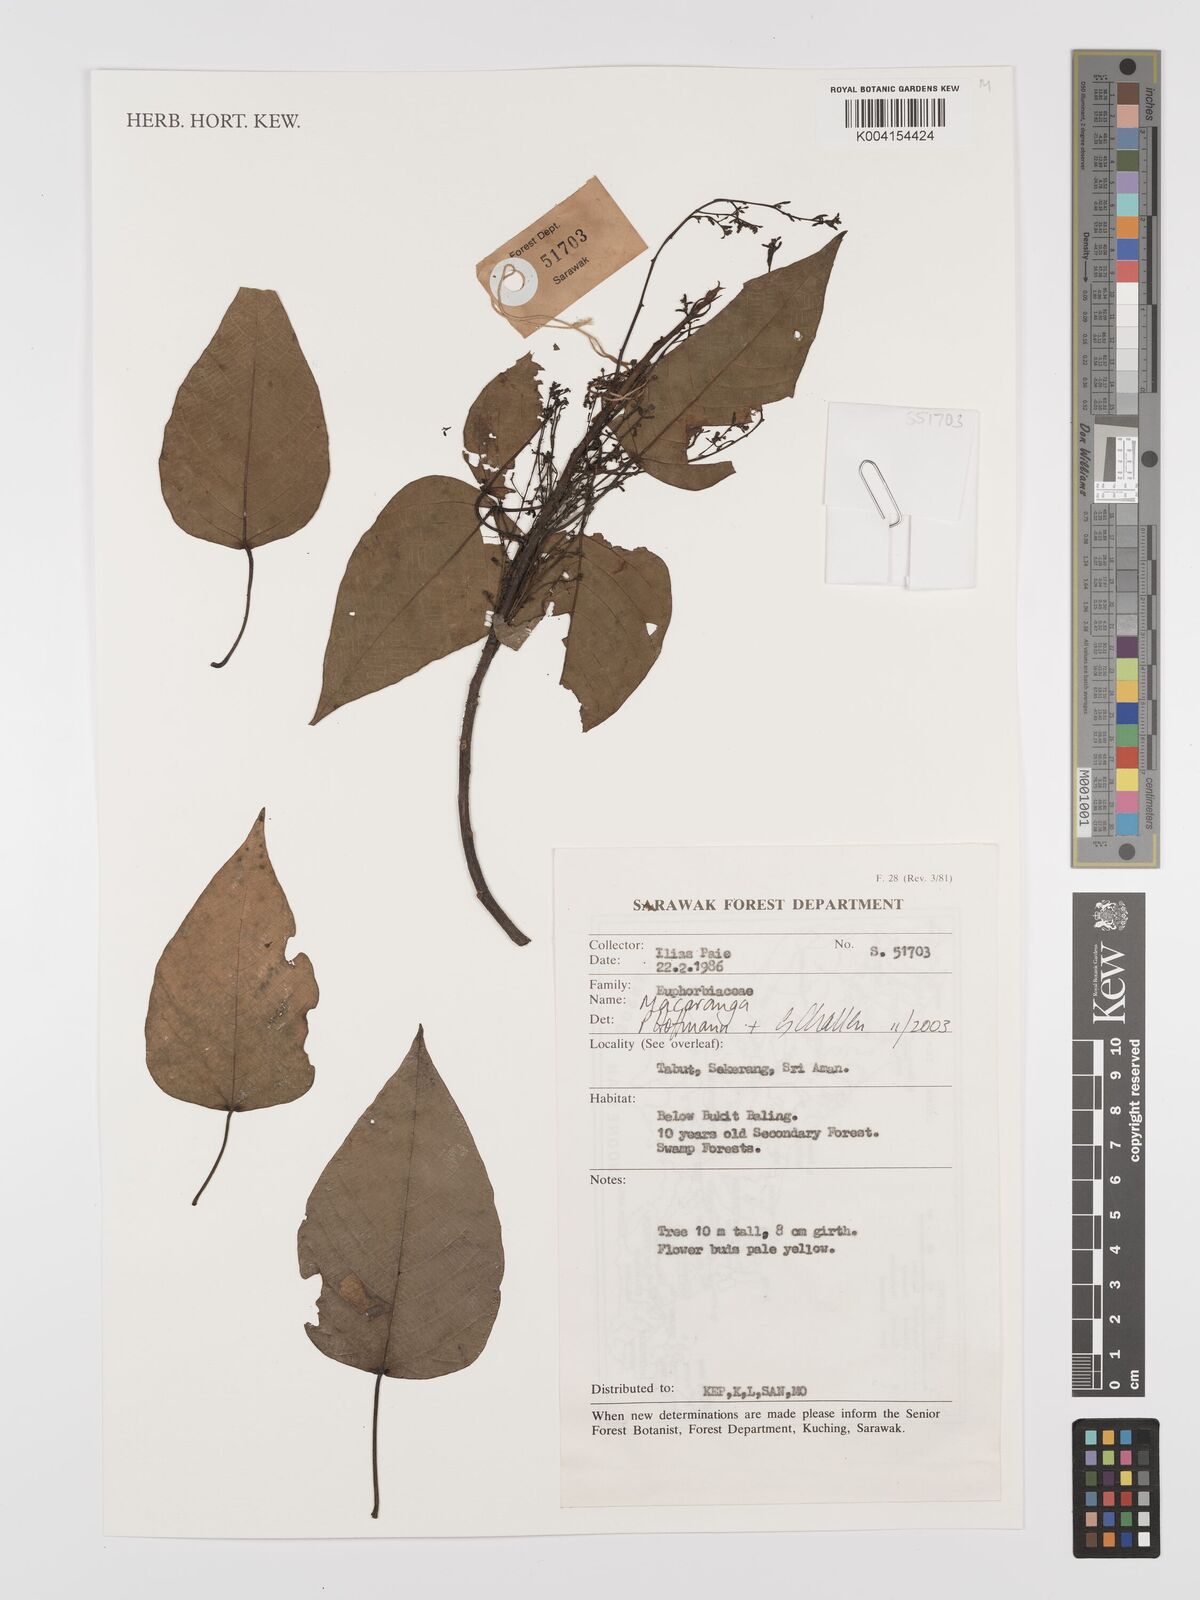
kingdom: Plantae
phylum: Tracheophyta
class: Magnoliopsida
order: Malpighiales
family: Euphorbiaceae
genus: Macaranga
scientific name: Macaranga
